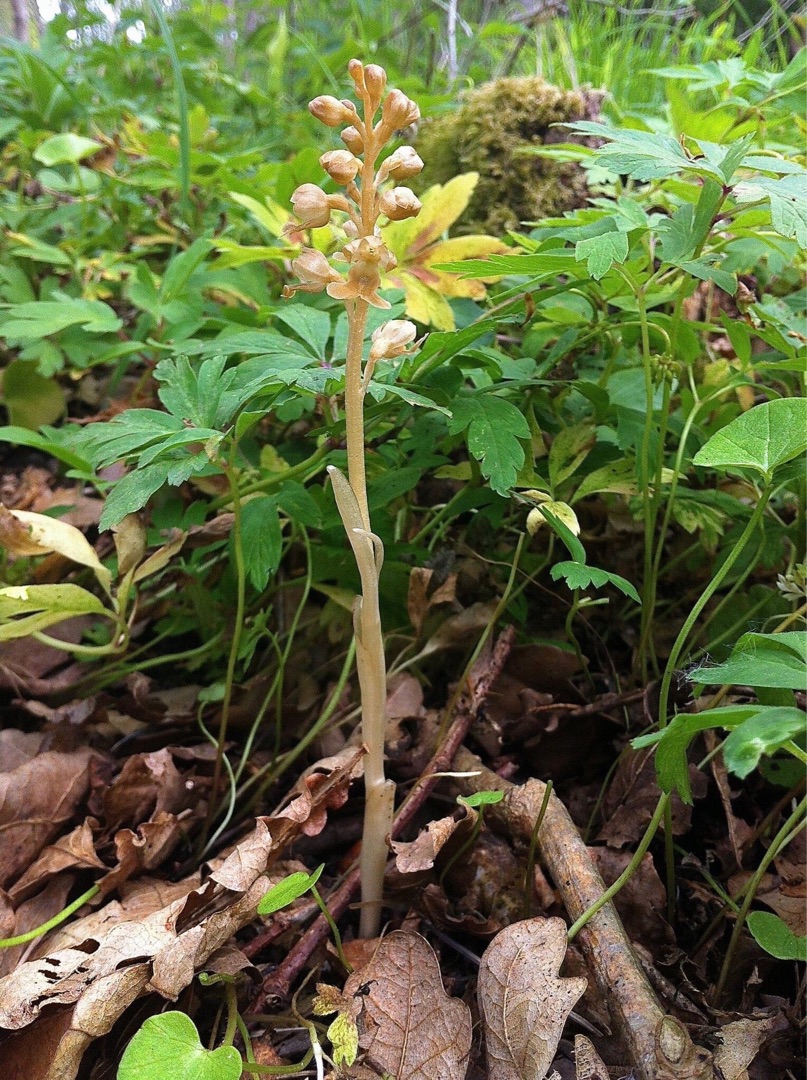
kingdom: Plantae
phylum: Tracheophyta
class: Liliopsida
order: Asparagales
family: Orchidaceae
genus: Neottia
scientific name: Neottia nidus-avis
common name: Rederod
